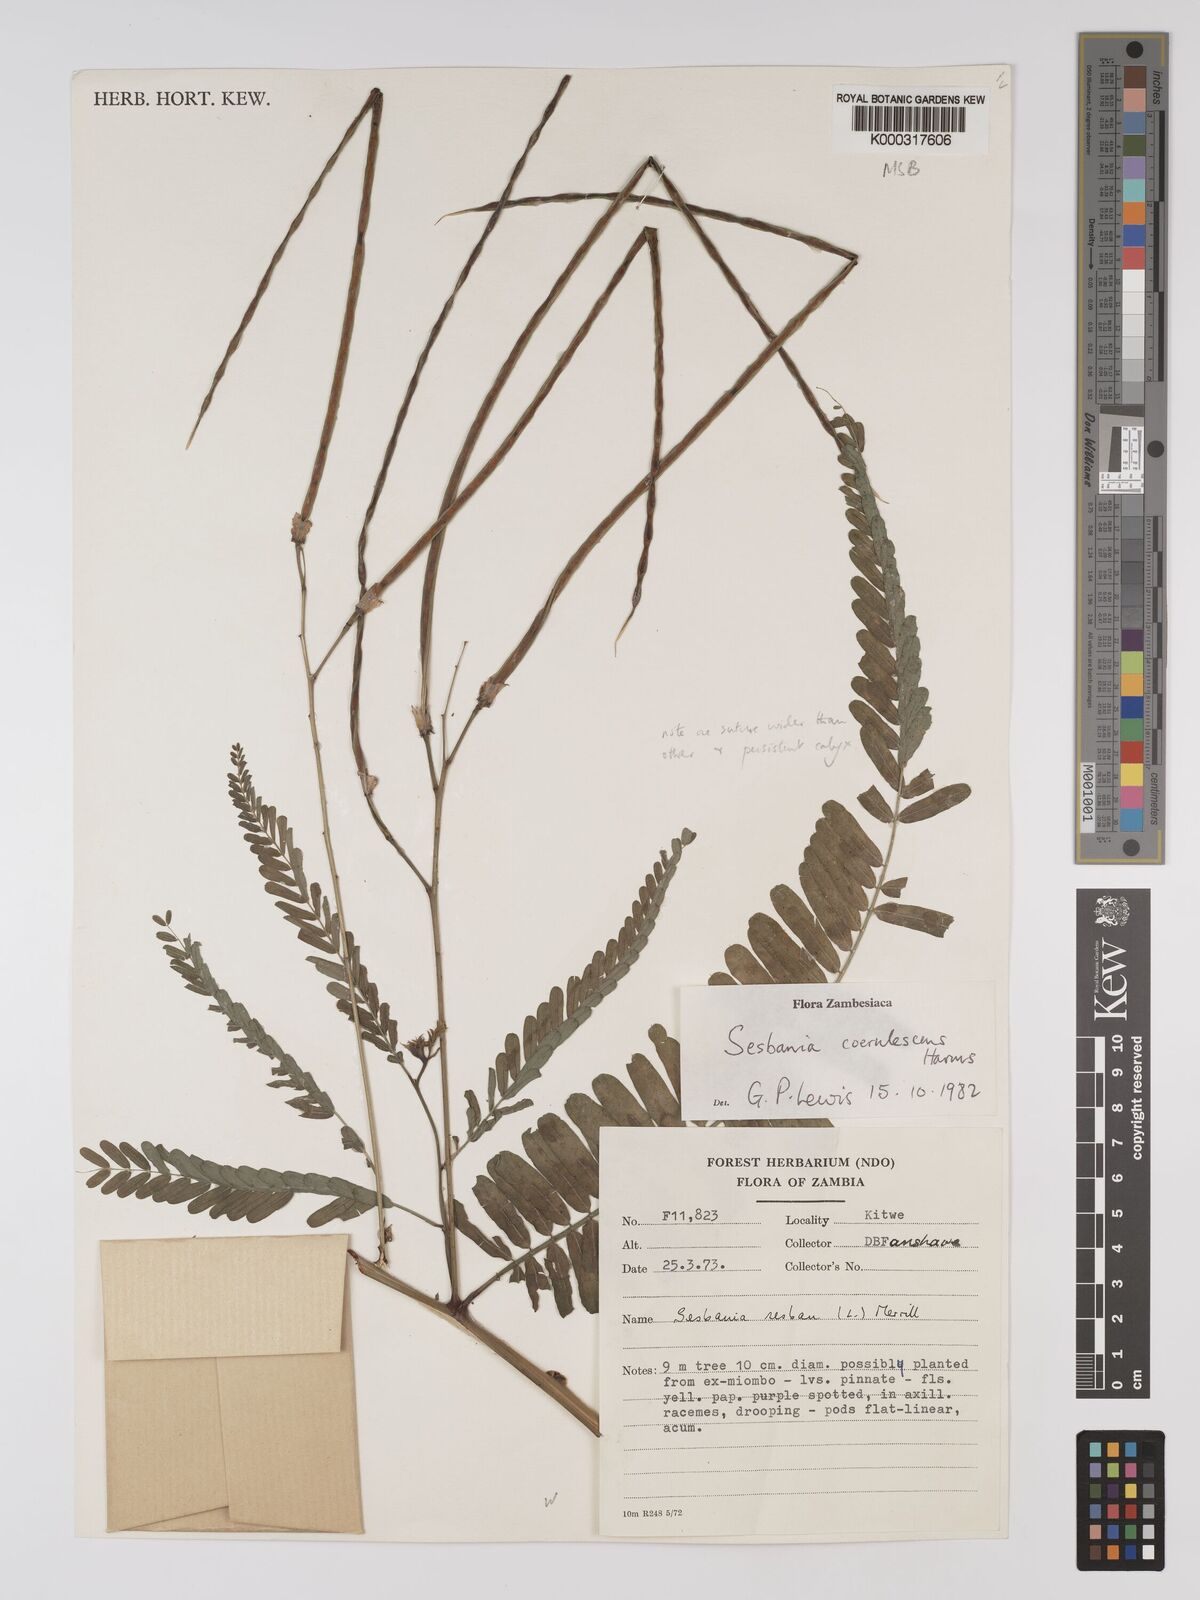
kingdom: Plantae
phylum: Tracheophyta
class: Magnoliopsida
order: Fabales
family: Fabaceae
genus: Sesbania
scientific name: Sesbania coerulescens
